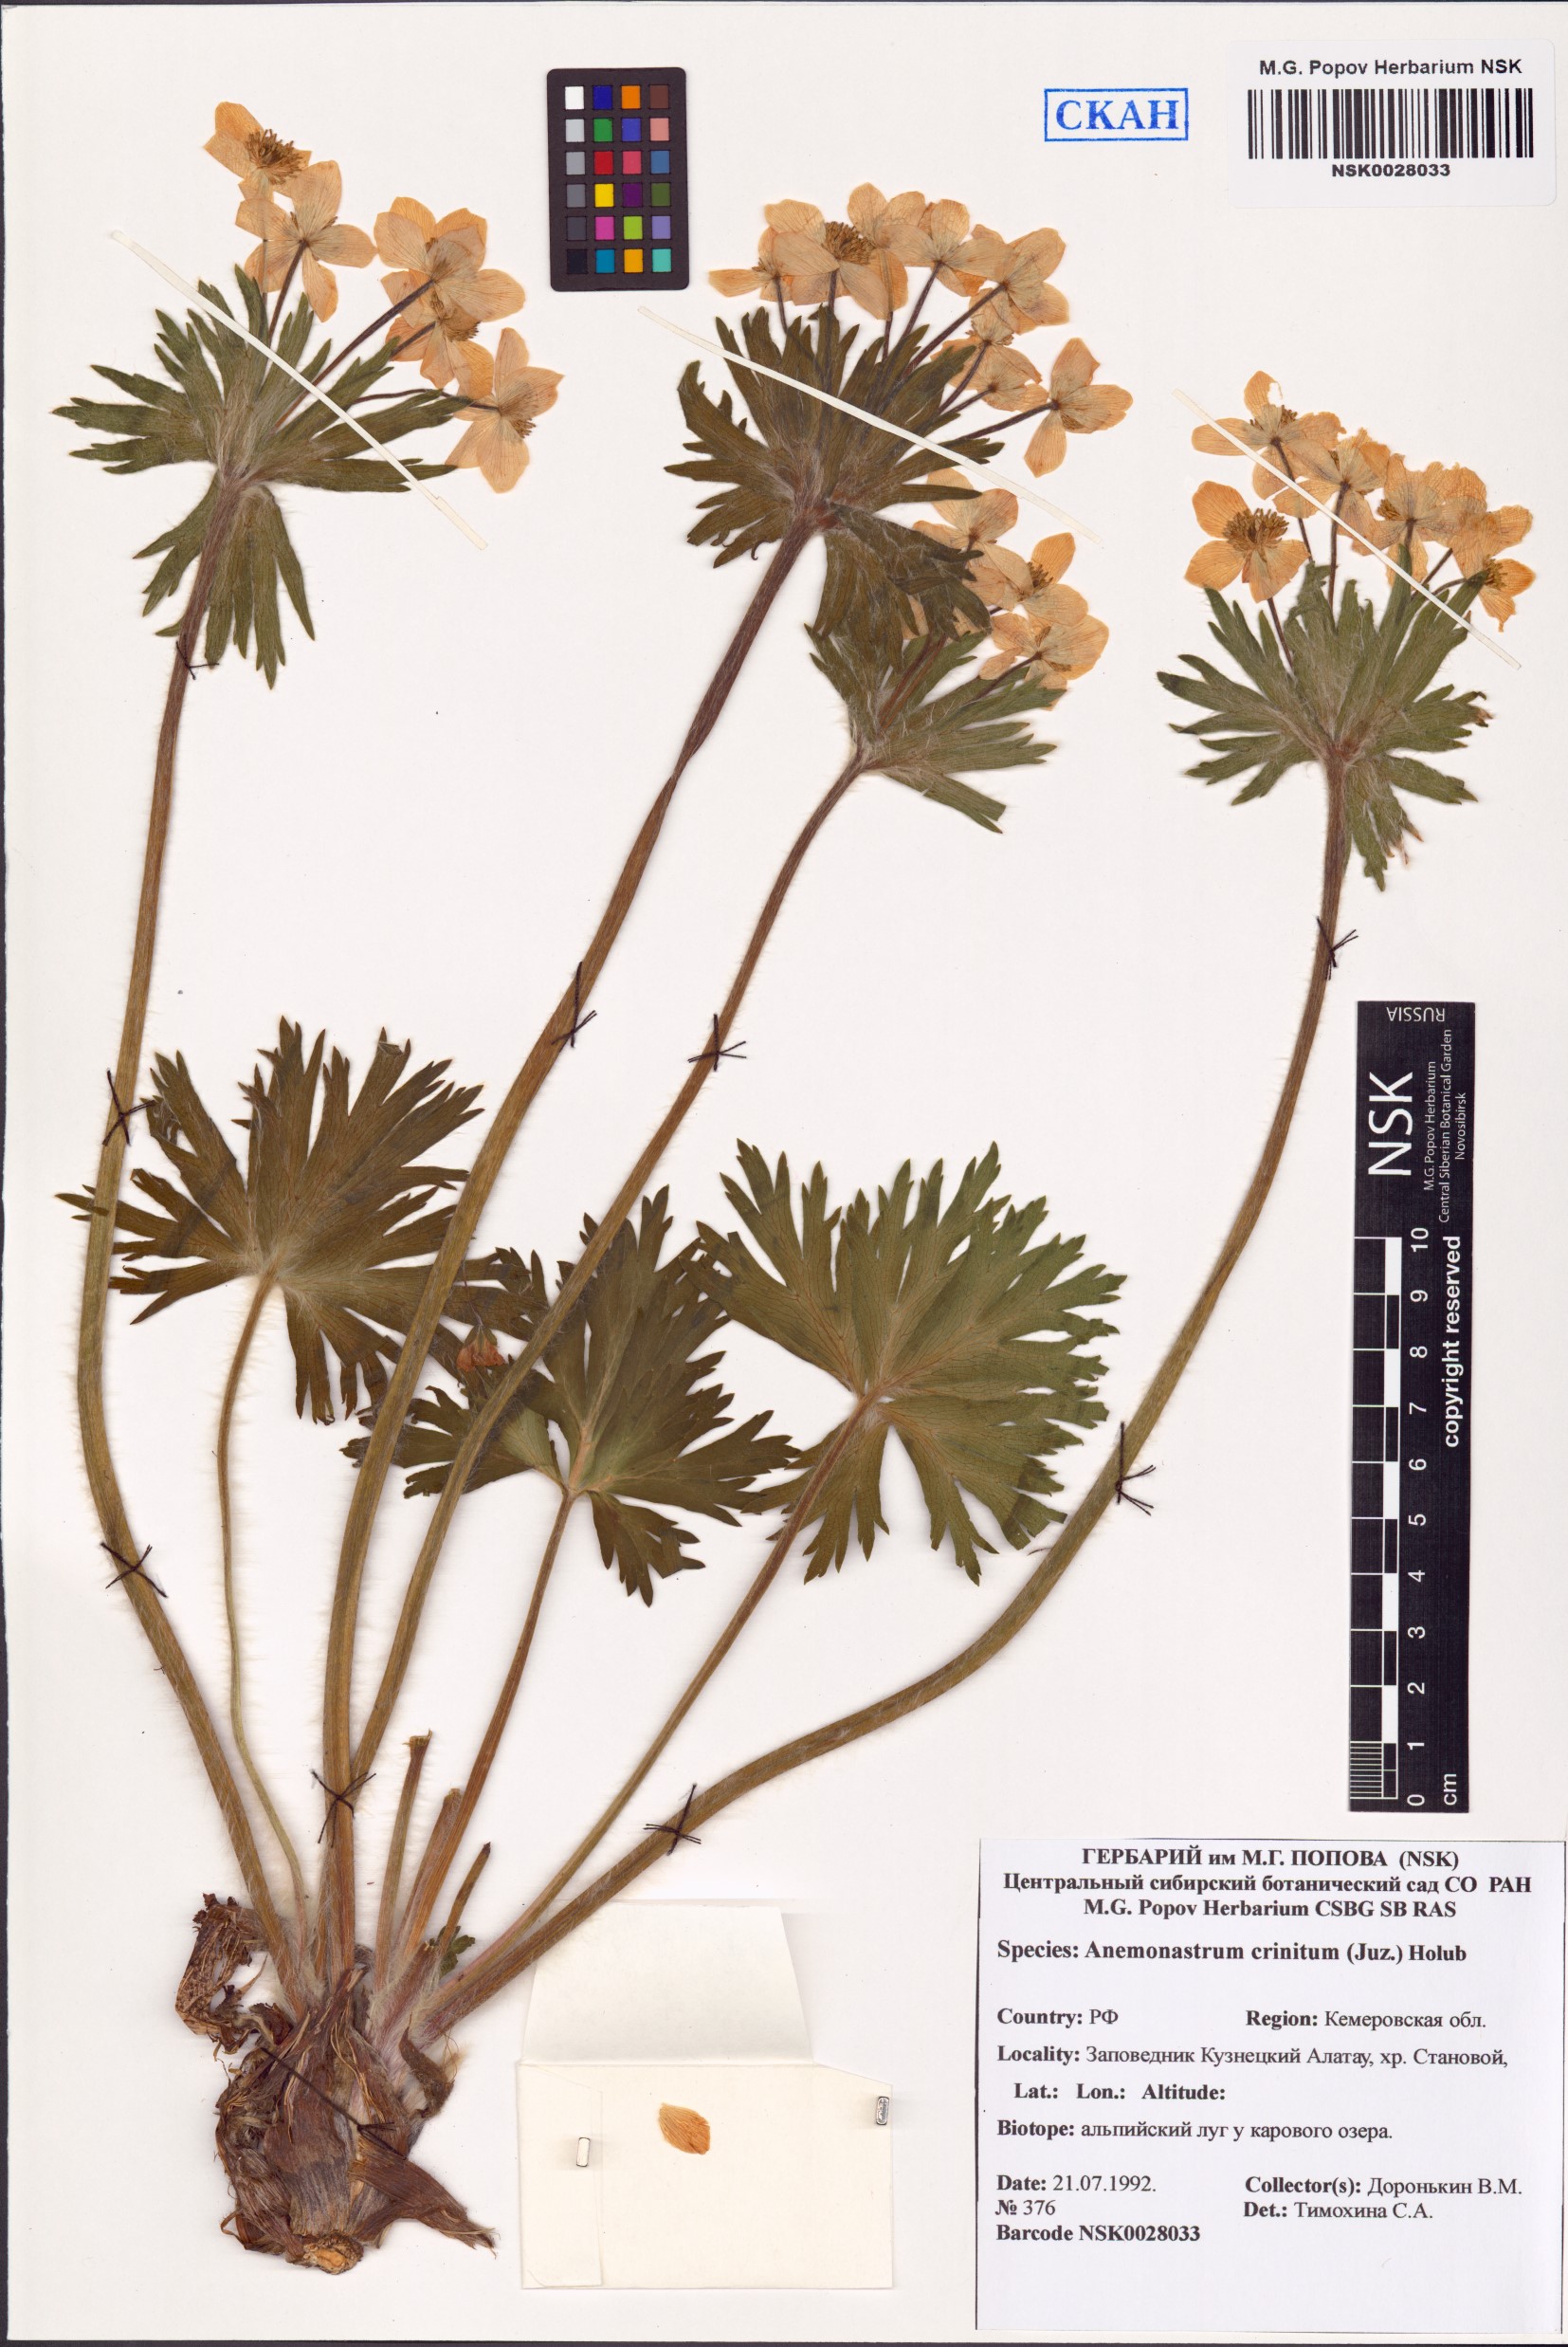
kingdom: Plantae
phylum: Tracheophyta
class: Magnoliopsida
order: Ranunculales
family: Ranunculaceae
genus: Anemonastrum
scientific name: Anemonastrum narcissiflorum
